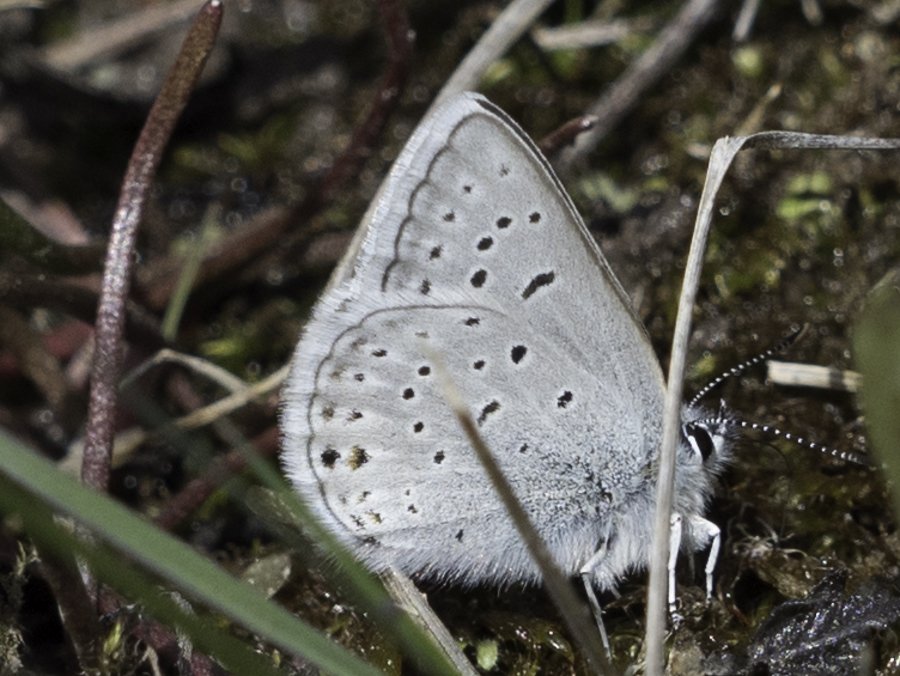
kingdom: Animalia
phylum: Arthropoda
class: Insecta
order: Lepidoptera
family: Lycaenidae
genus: Plebejus
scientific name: Plebejus saepiolus
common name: Greenish Blue
